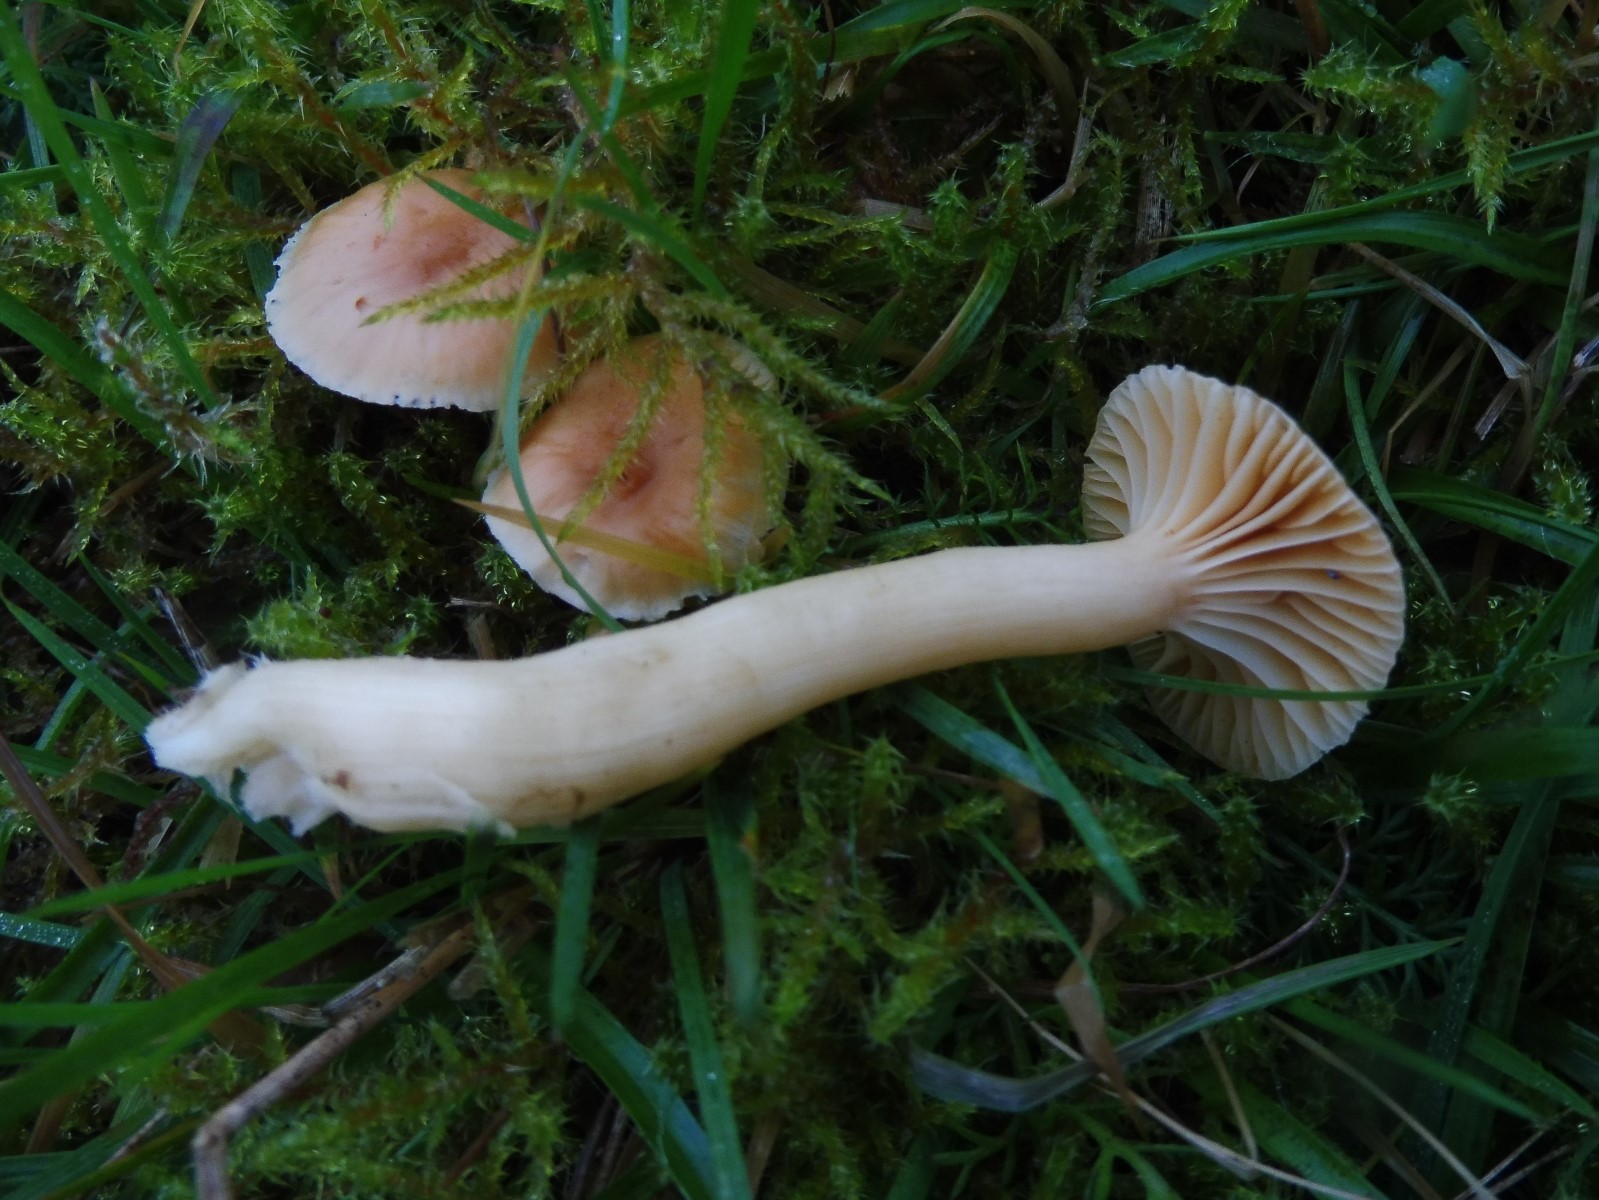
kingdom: Fungi
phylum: Basidiomycota
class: Agaricomycetes
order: Agaricales
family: Hygrophoraceae
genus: Cuphophyllus
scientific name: Cuphophyllus pratensis
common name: eng-vokshat
